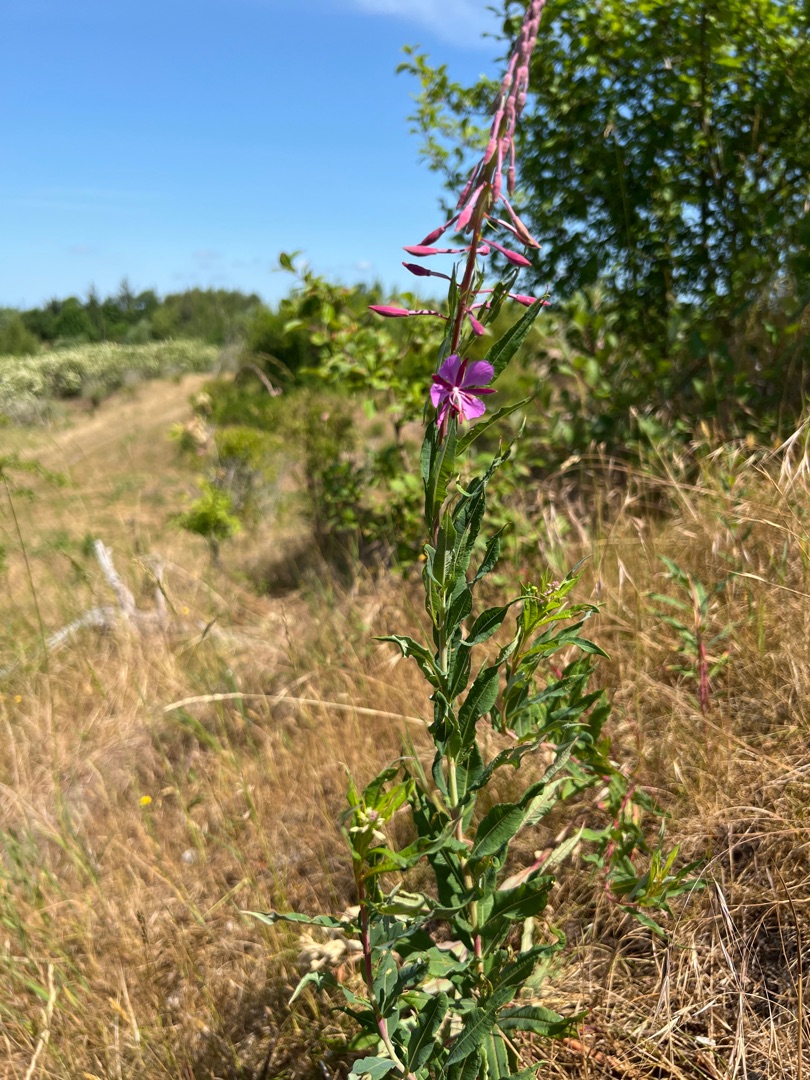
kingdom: Plantae
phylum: Tracheophyta
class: Magnoliopsida
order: Myrtales
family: Onagraceae
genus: Chamaenerion
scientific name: Chamaenerion angustifolium
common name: Gederams
